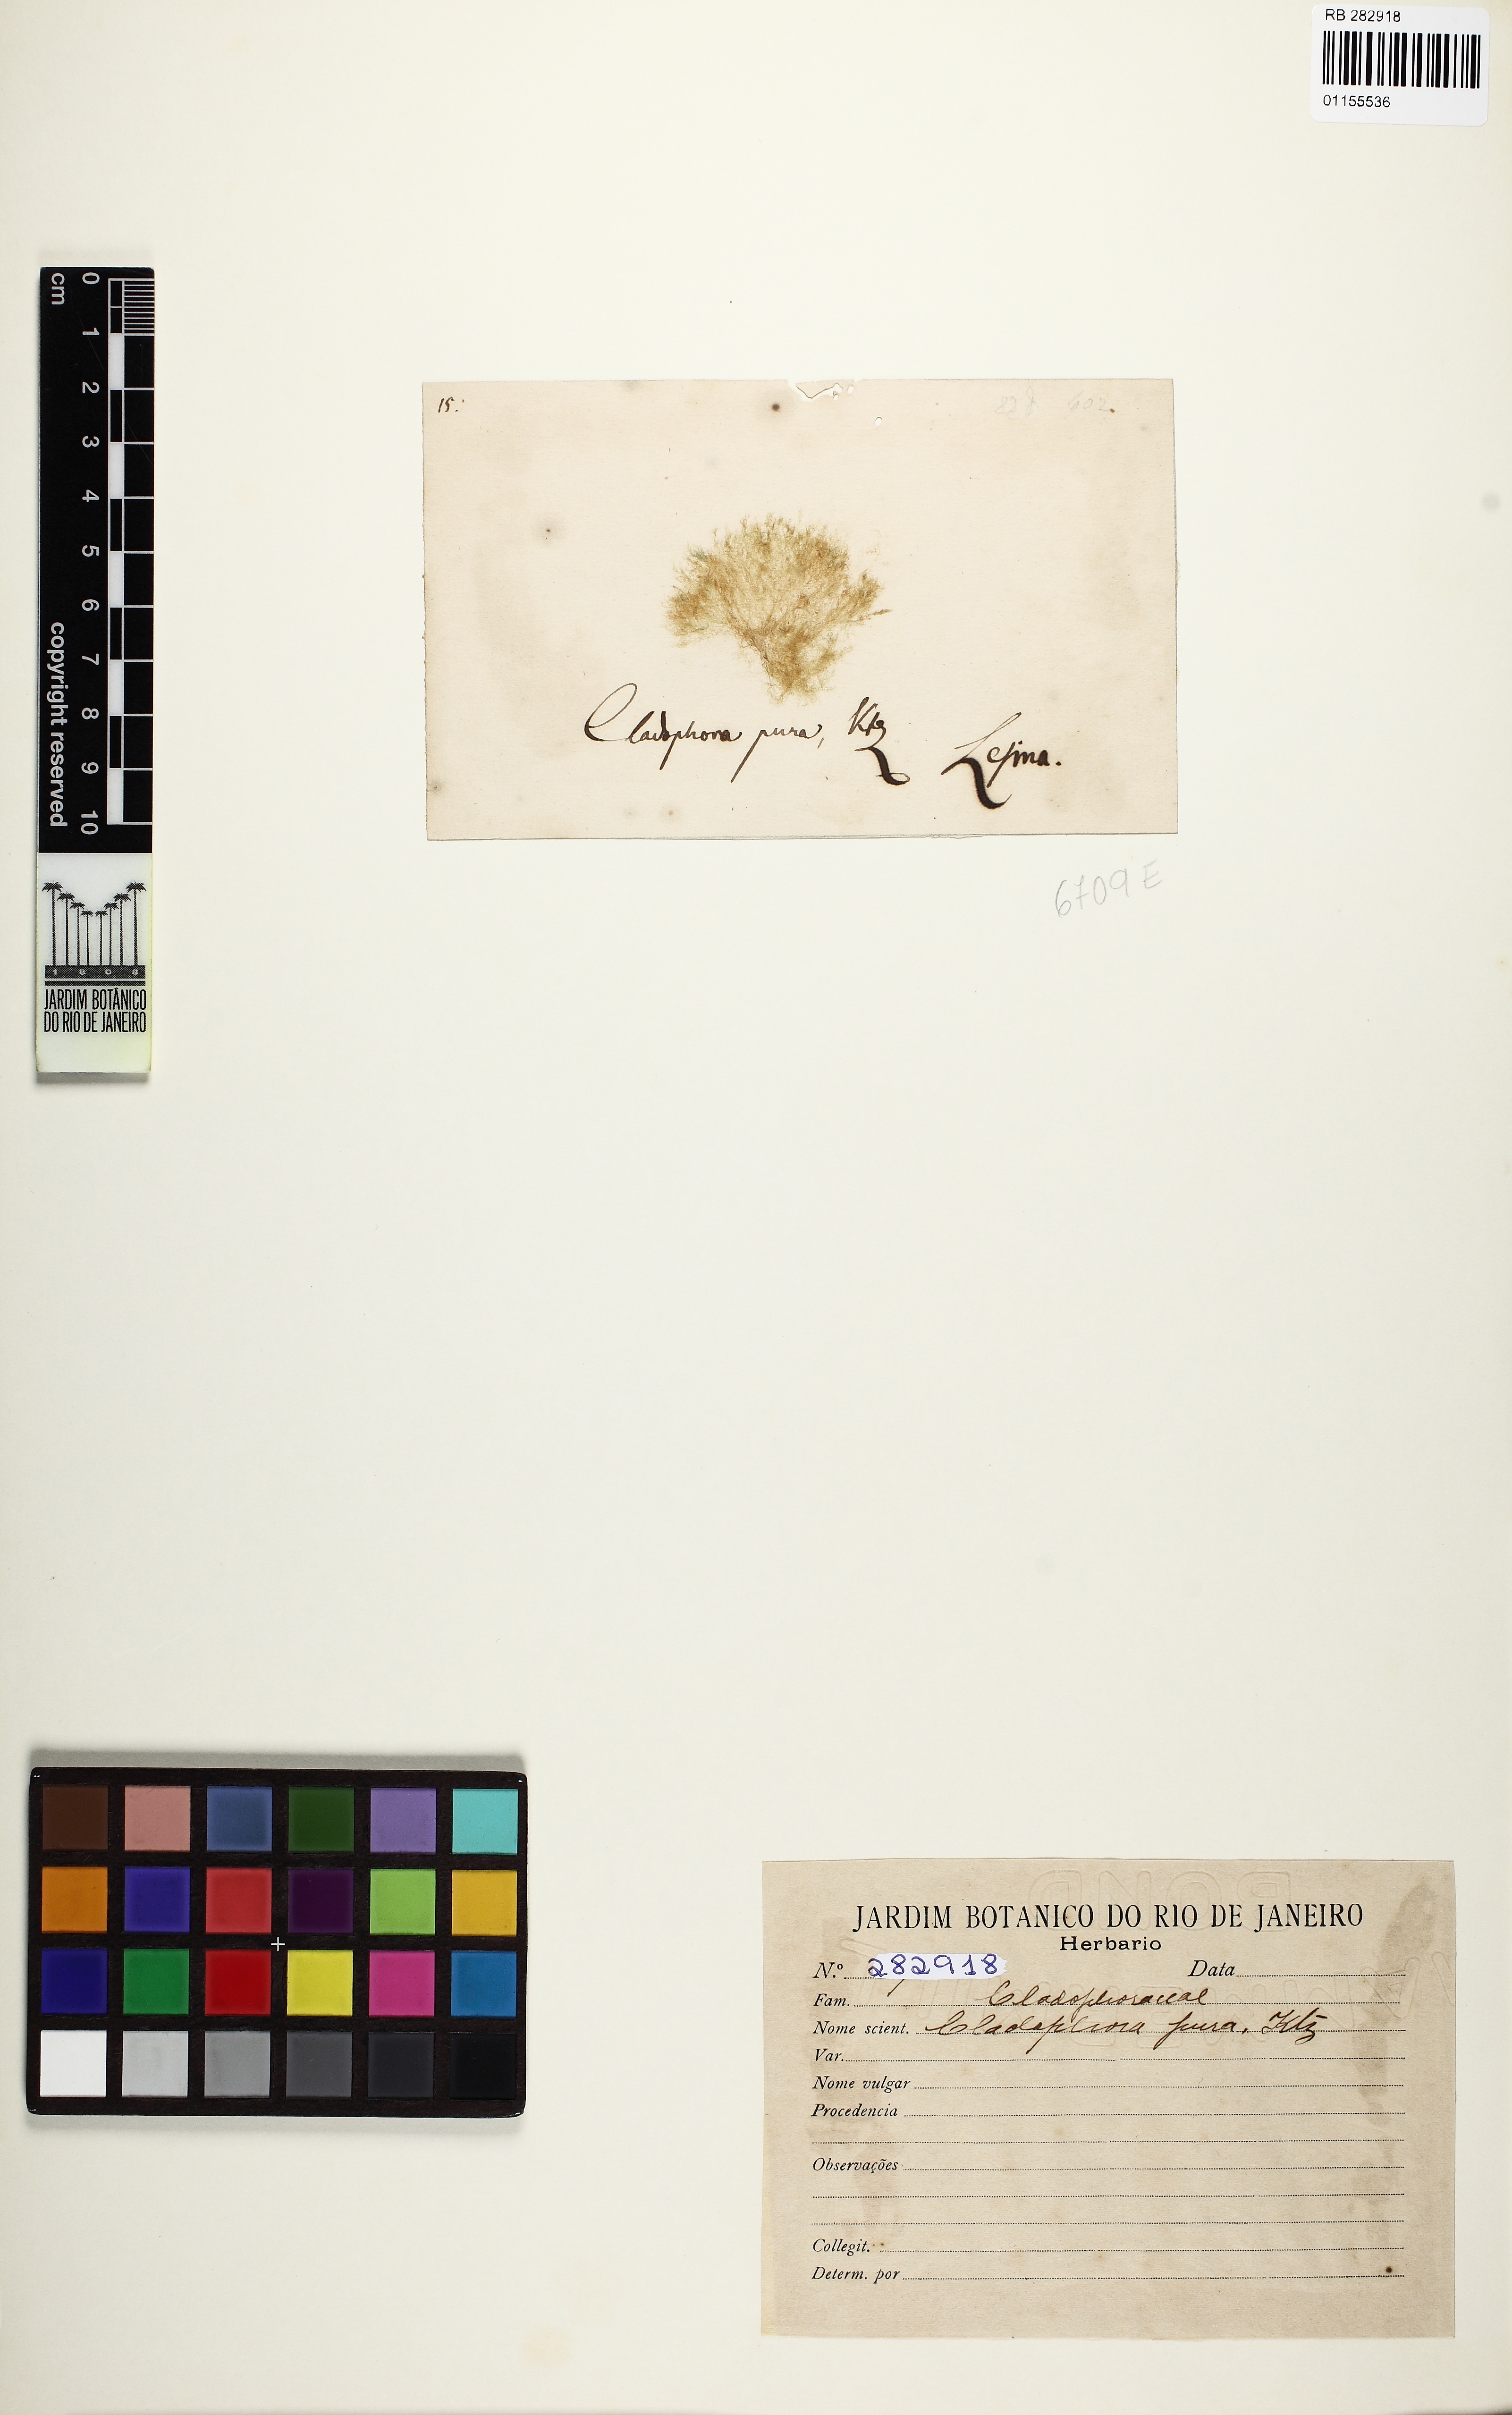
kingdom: Plantae
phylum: Chlorophyta
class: Ulvophyceae
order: Cladophorales
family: Cladophoraceae
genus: Cladophora
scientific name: Cladophora
